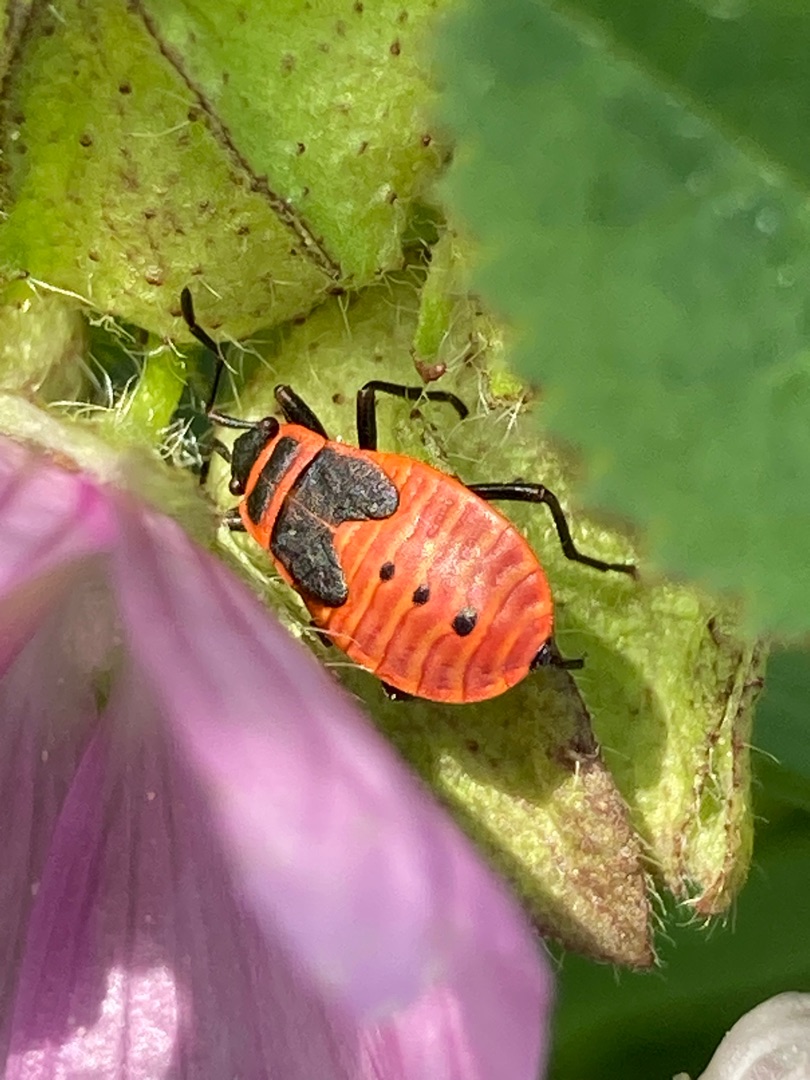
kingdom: Animalia
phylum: Arthropoda
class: Insecta
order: Hemiptera
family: Pyrrhocoridae
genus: Pyrrhocoris
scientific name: Pyrrhocoris apterus
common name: Ildtæge
